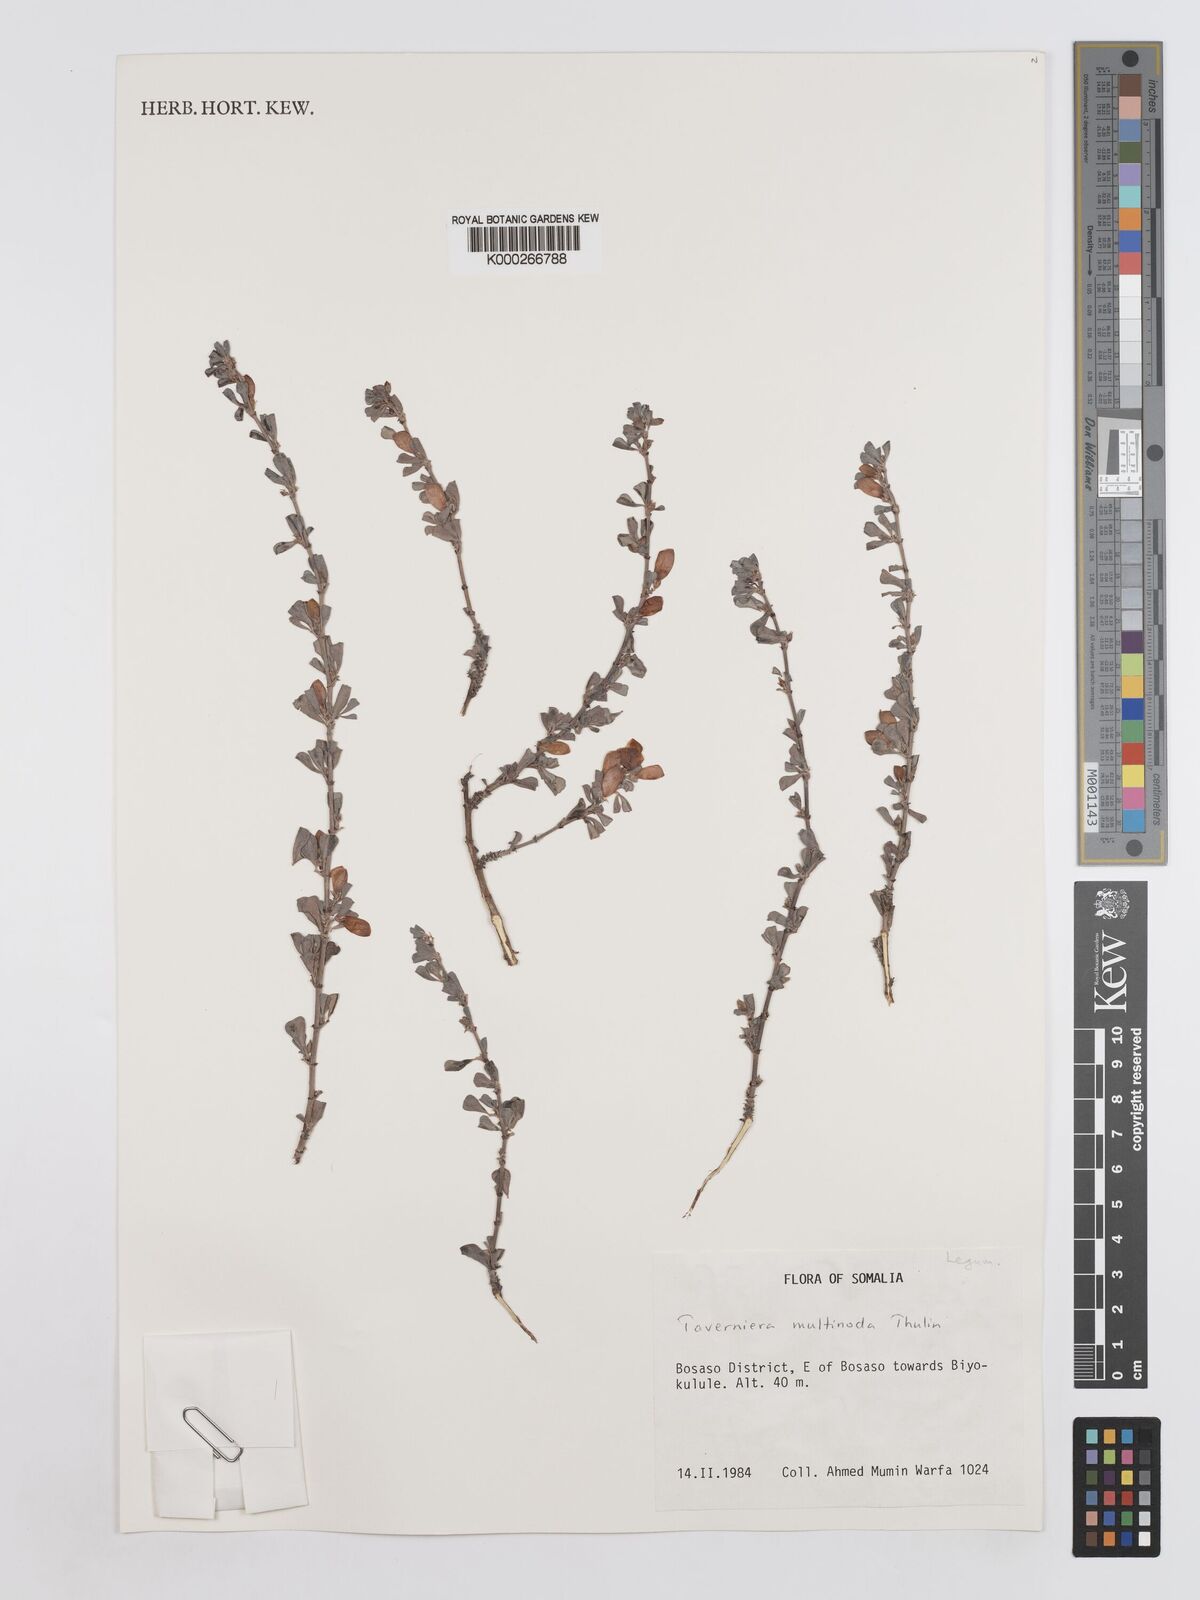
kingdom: Plantae
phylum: Tracheophyta
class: Magnoliopsida
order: Fabales
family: Fabaceae
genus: Taverniera
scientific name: Taverniera multinoda
